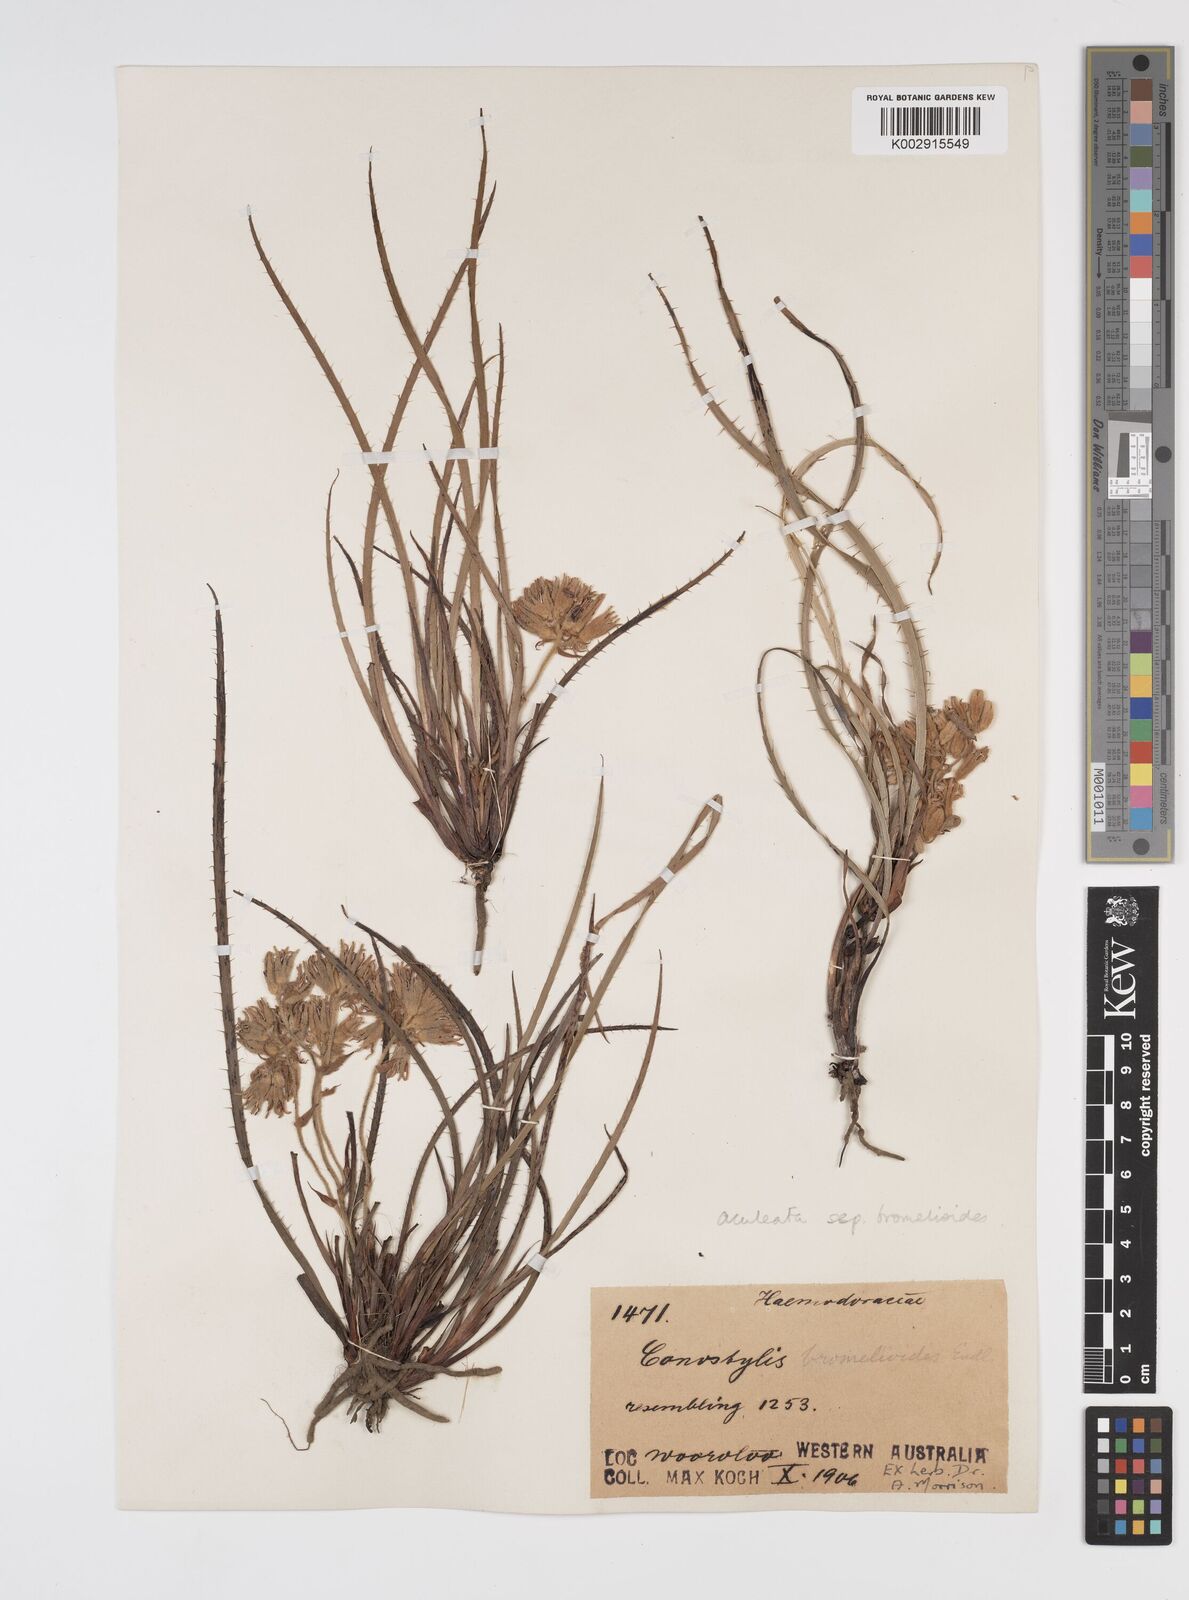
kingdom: Plantae
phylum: Tracheophyta
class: Liliopsida
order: Commelinales
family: Haemodoraceae
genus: Conostylis
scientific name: Conostylis aculeata
